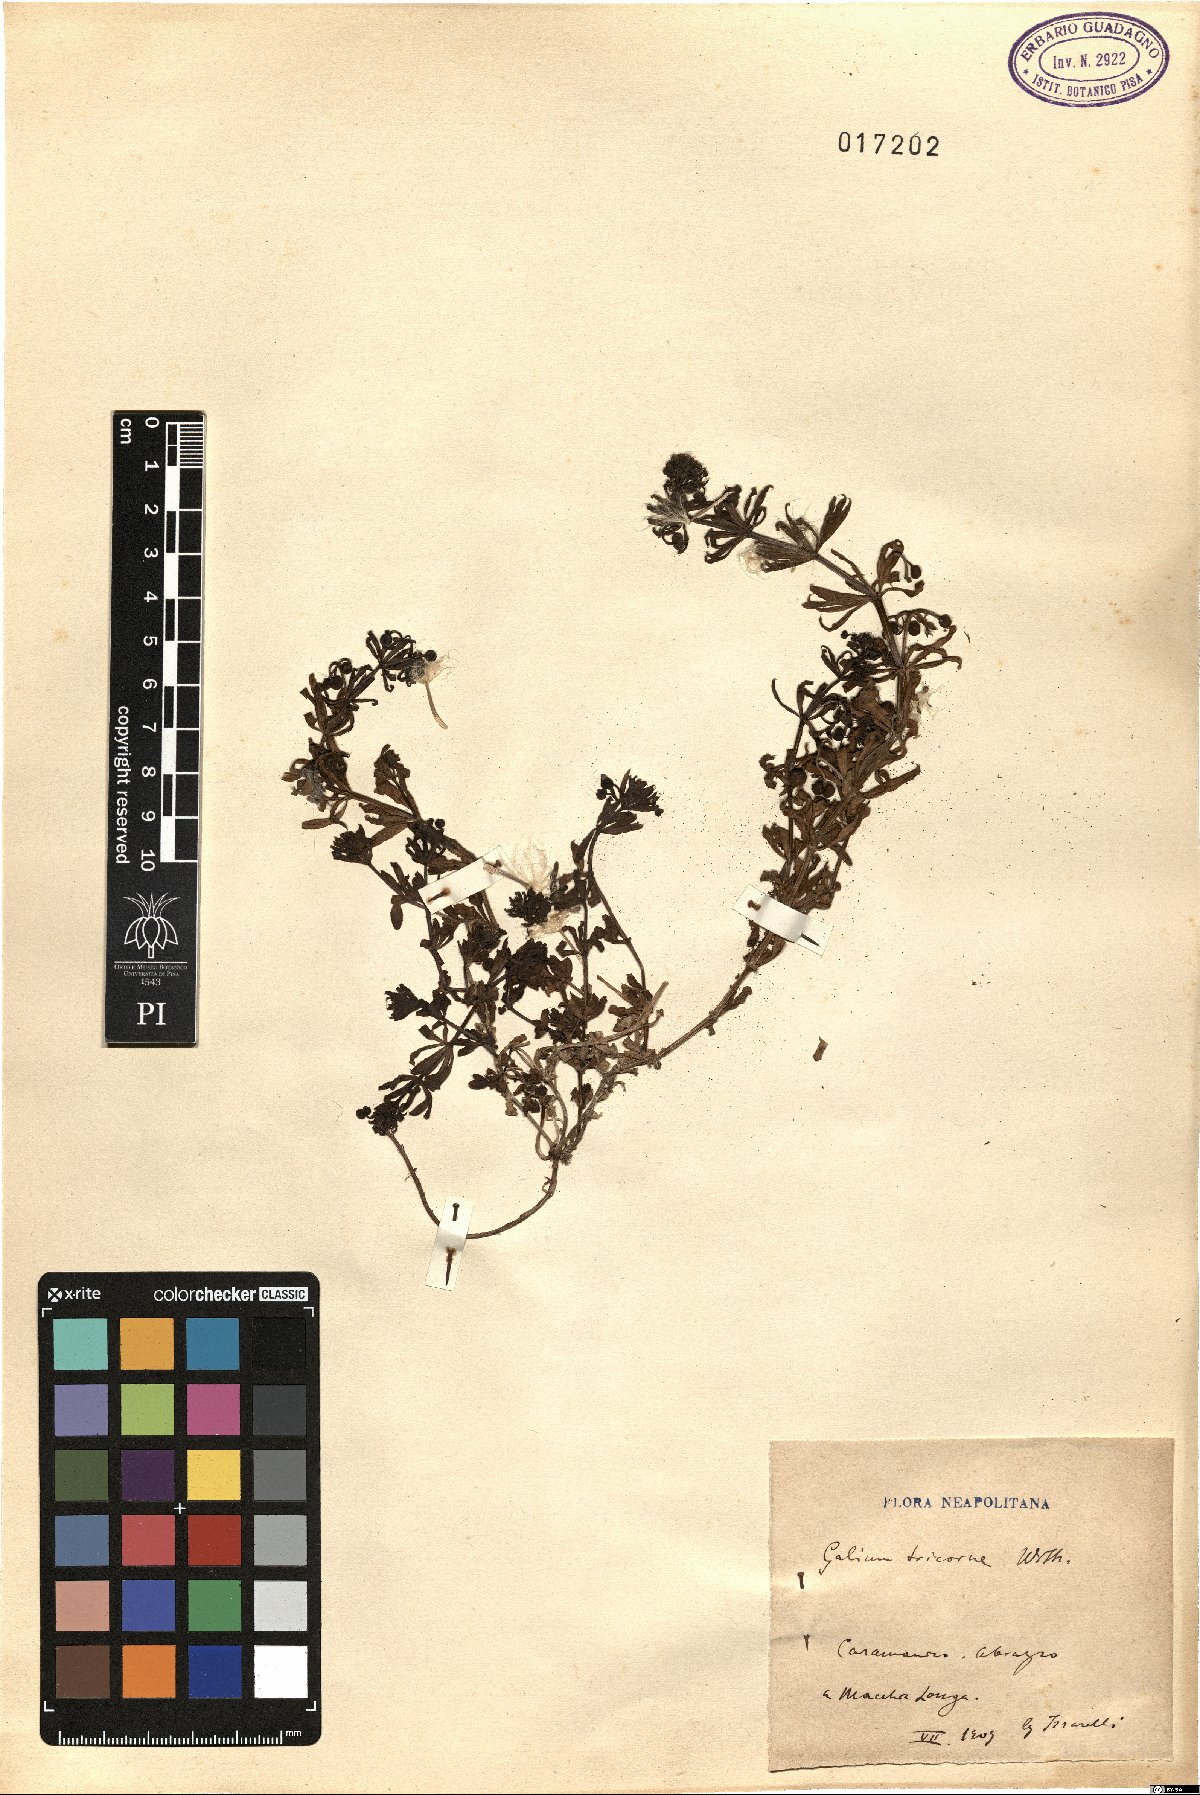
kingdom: Plantae
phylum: Tracheophyta
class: Magnoliopsida
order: Gentianales
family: Rubiaceae
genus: Galium
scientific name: Galium verrucosum
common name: Warty bedstraw
